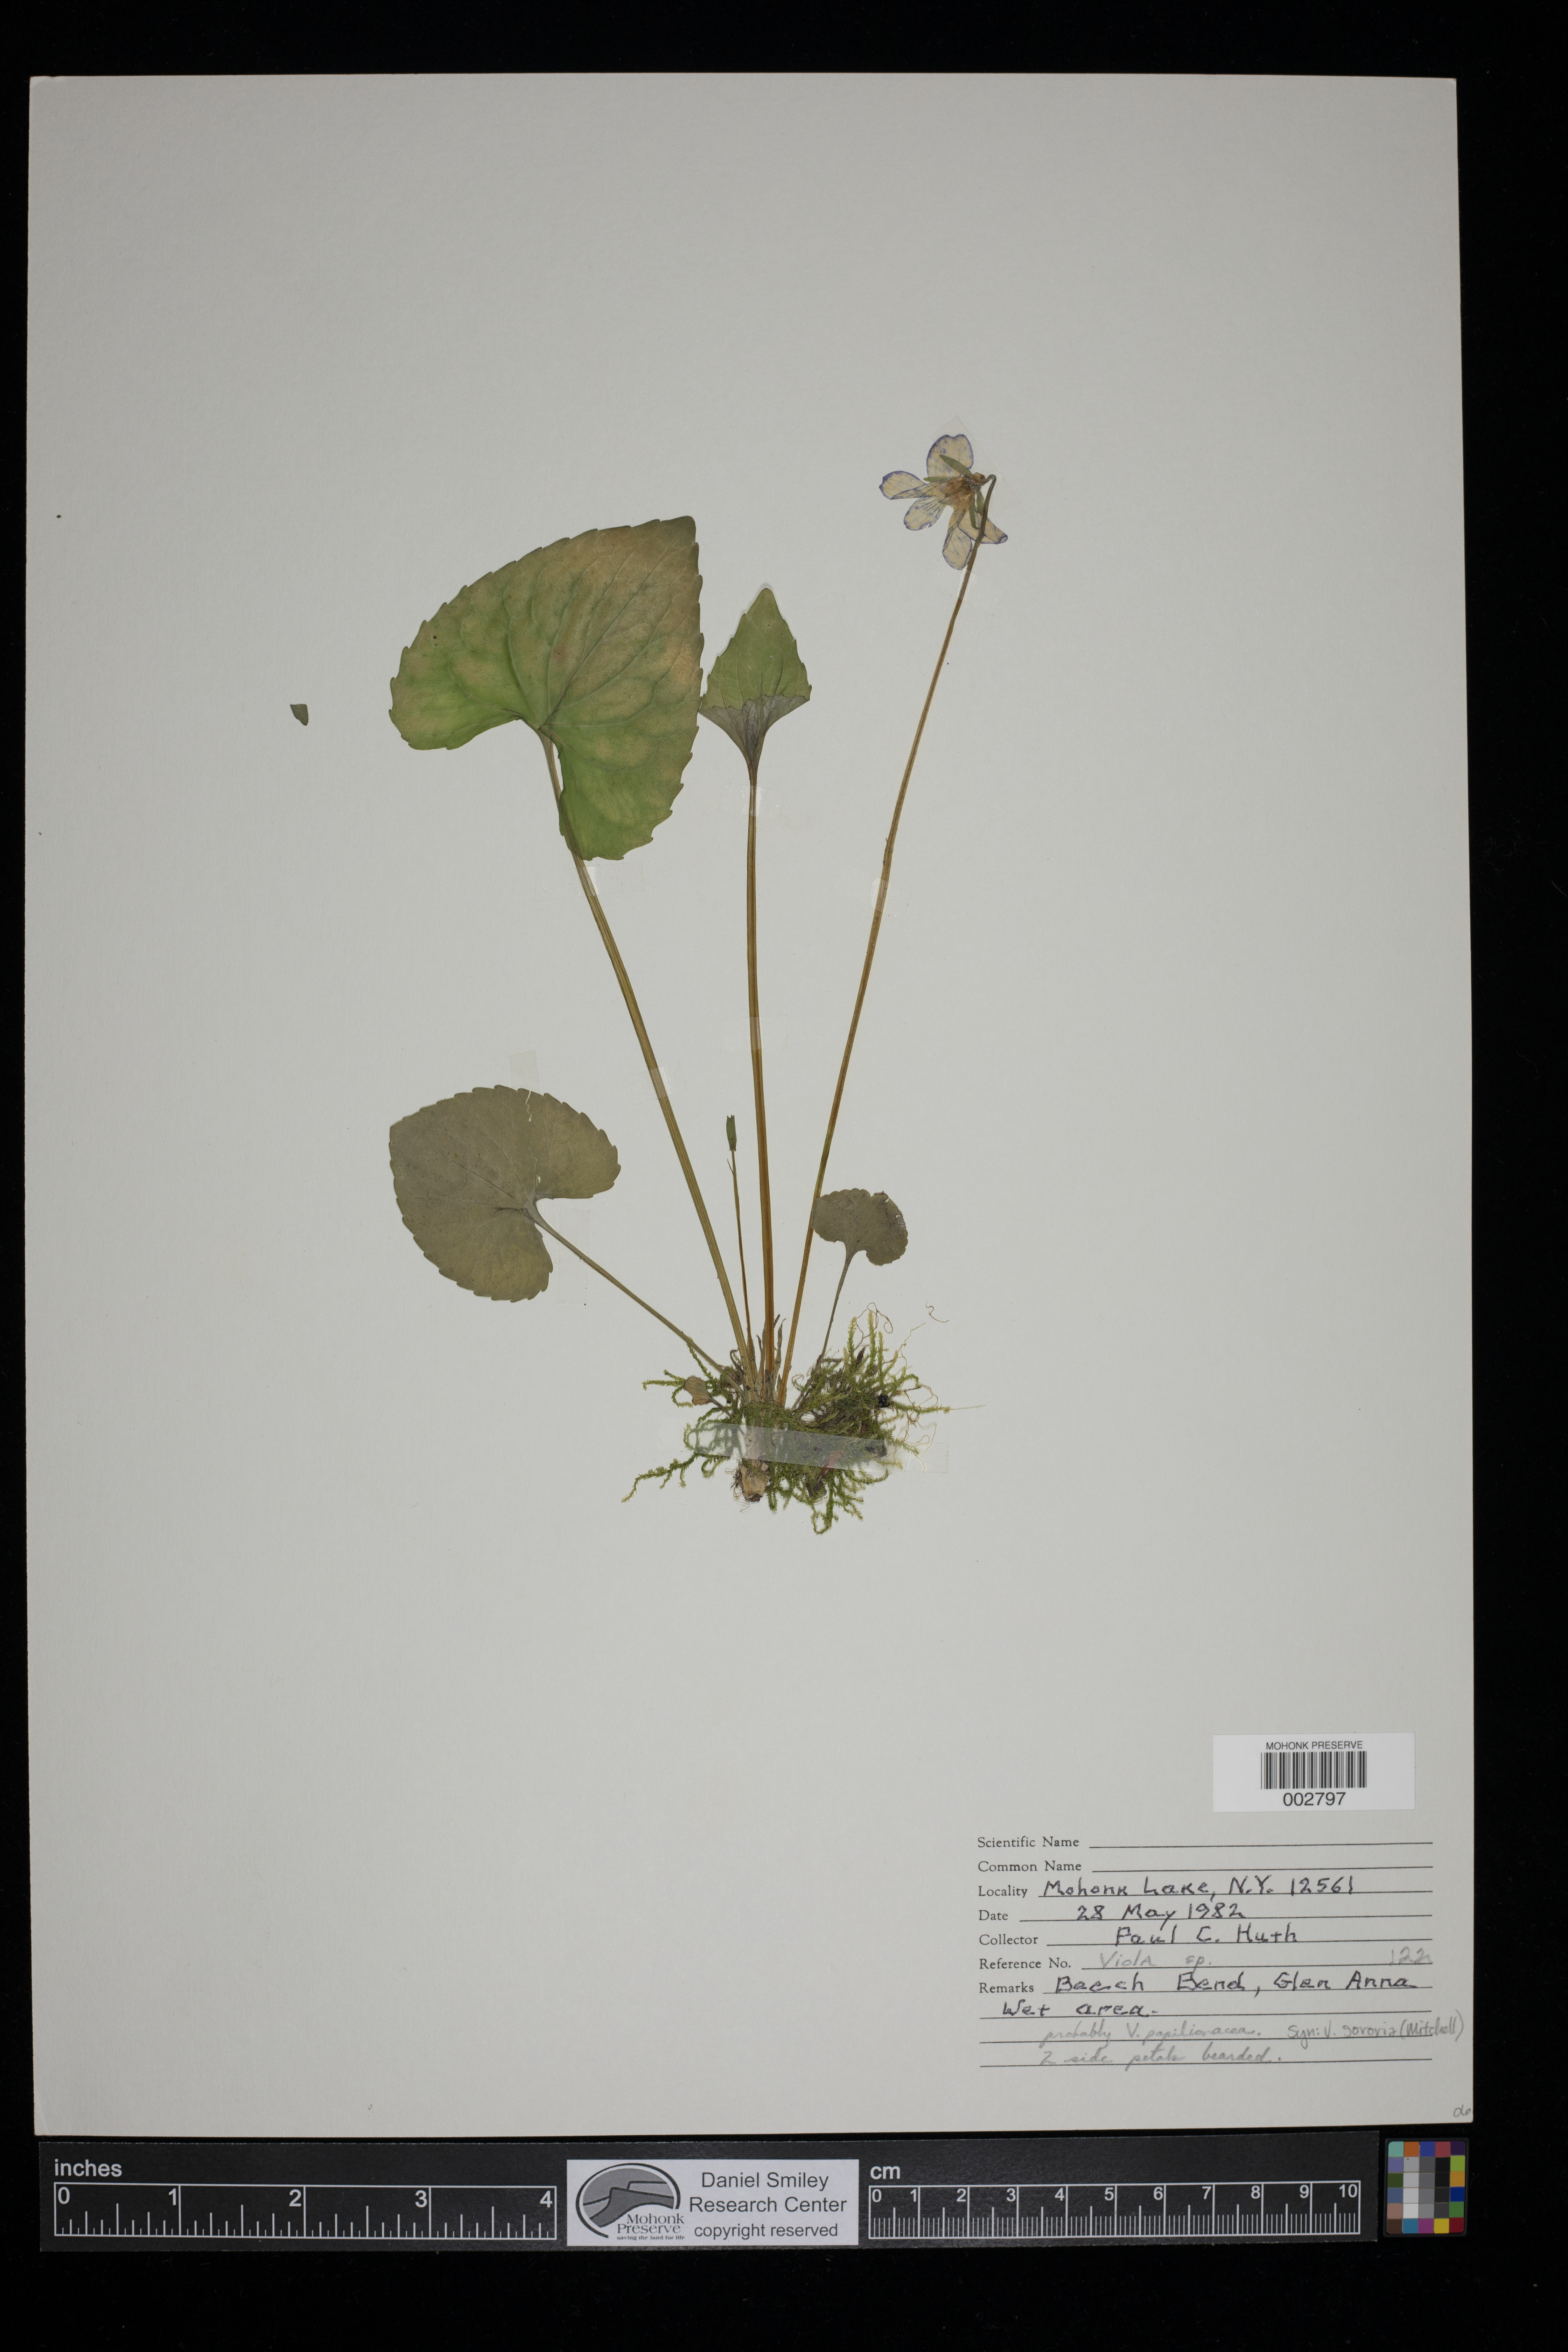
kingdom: Plantae
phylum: Tracheophyta
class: Magnoliopsida
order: Malpighiales
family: Violaceae
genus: Viola
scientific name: Viola
